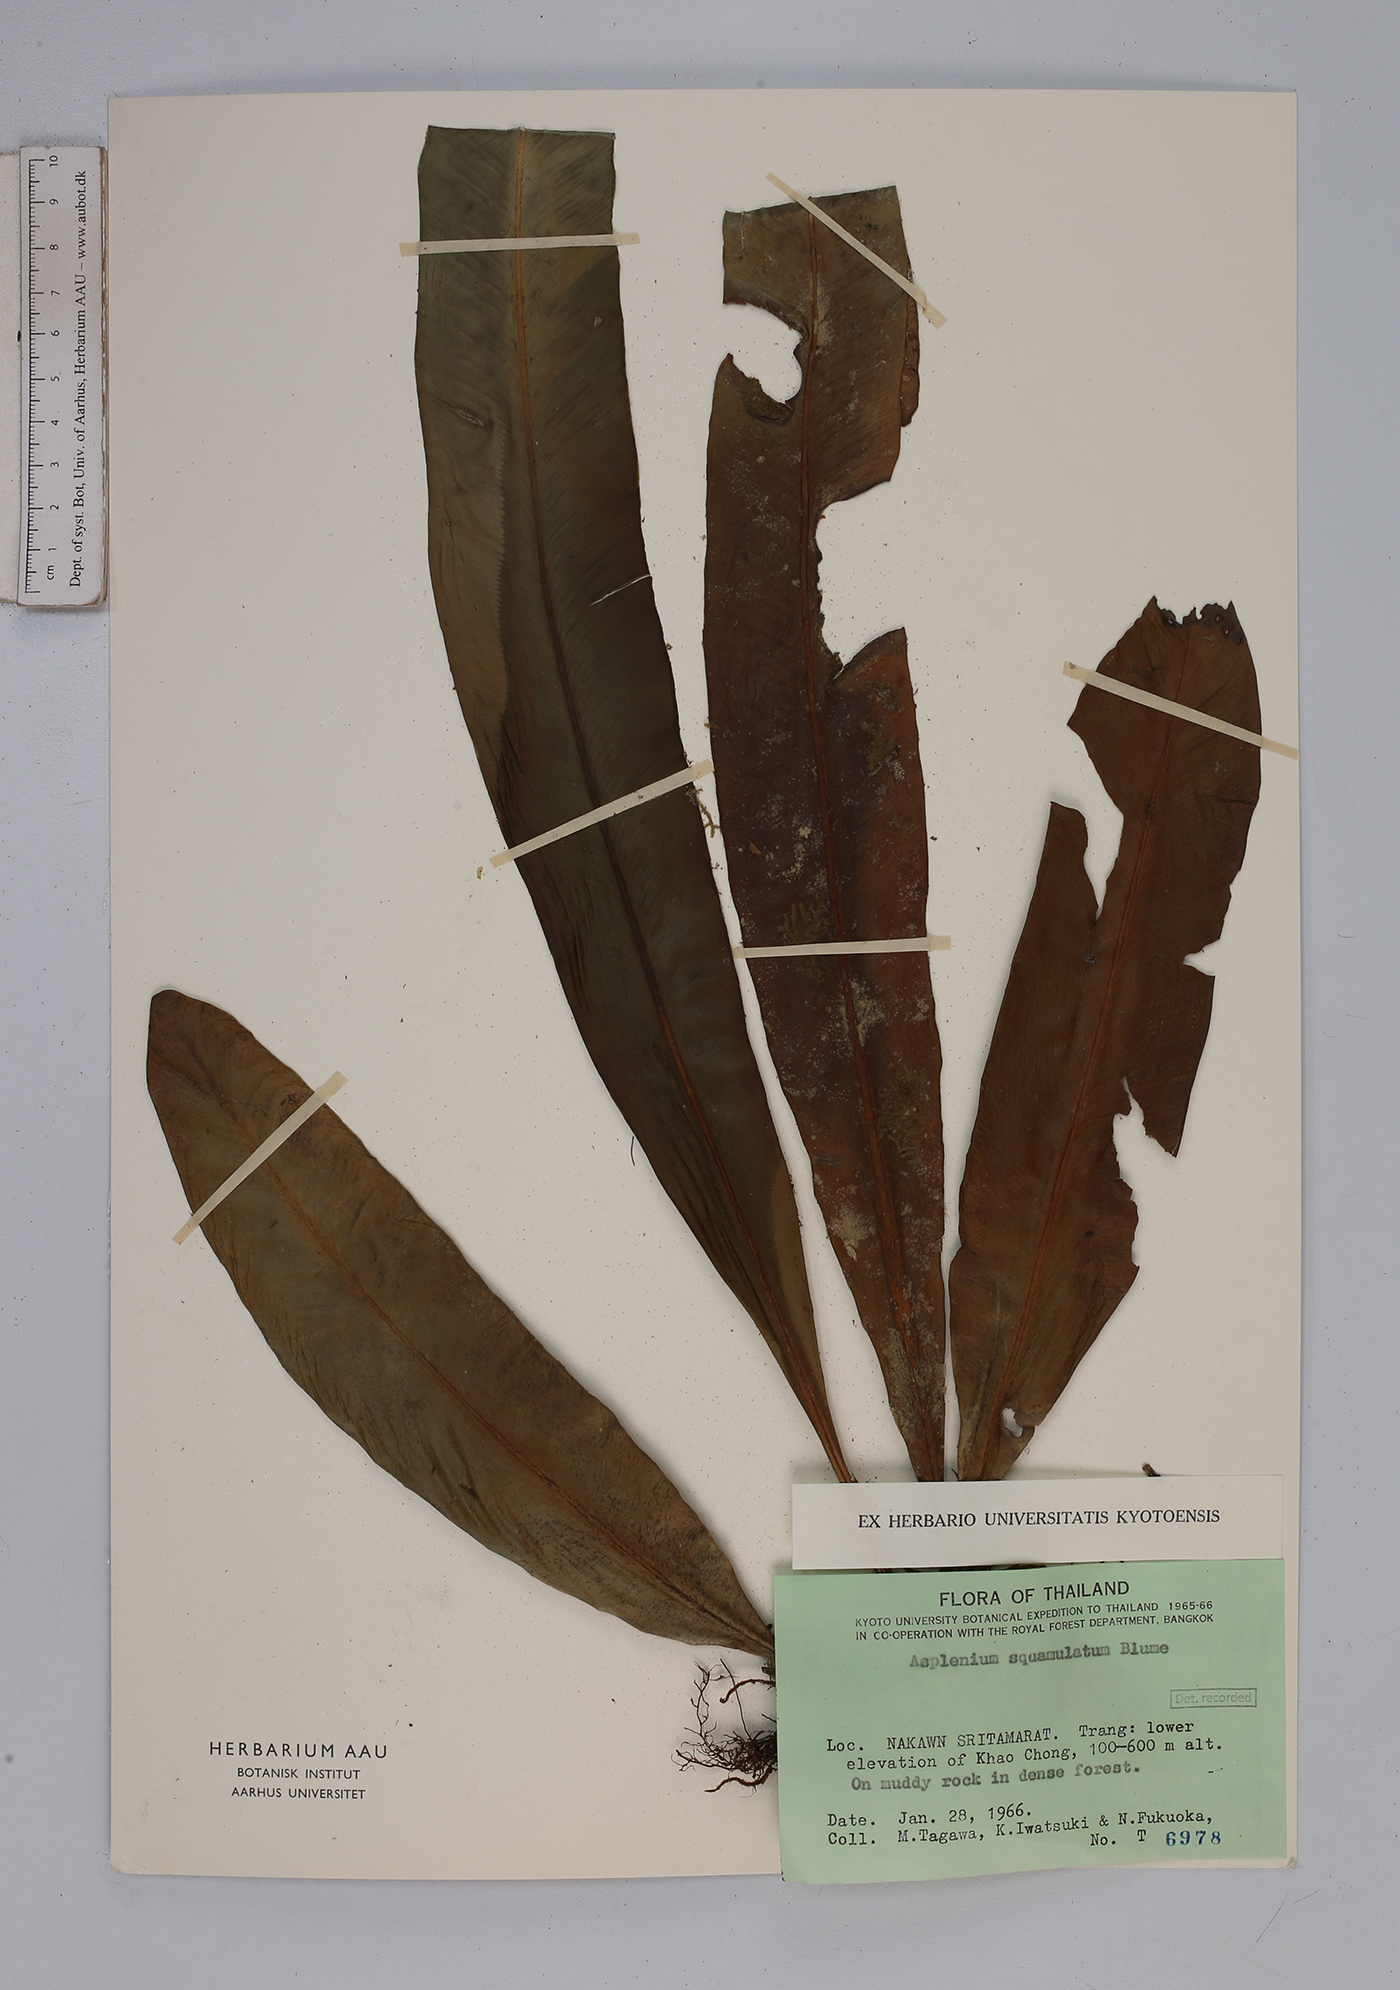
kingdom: Plantae
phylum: Tracheophyta
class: Polypodiopsida
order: Polypodiales
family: Aspleniaceae
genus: Asplenium
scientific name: Asplenium vittaeforme
